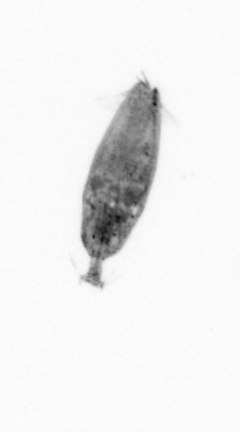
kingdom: Animalia
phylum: Arthropoda
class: Maxillopoda
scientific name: Maxillopoda
